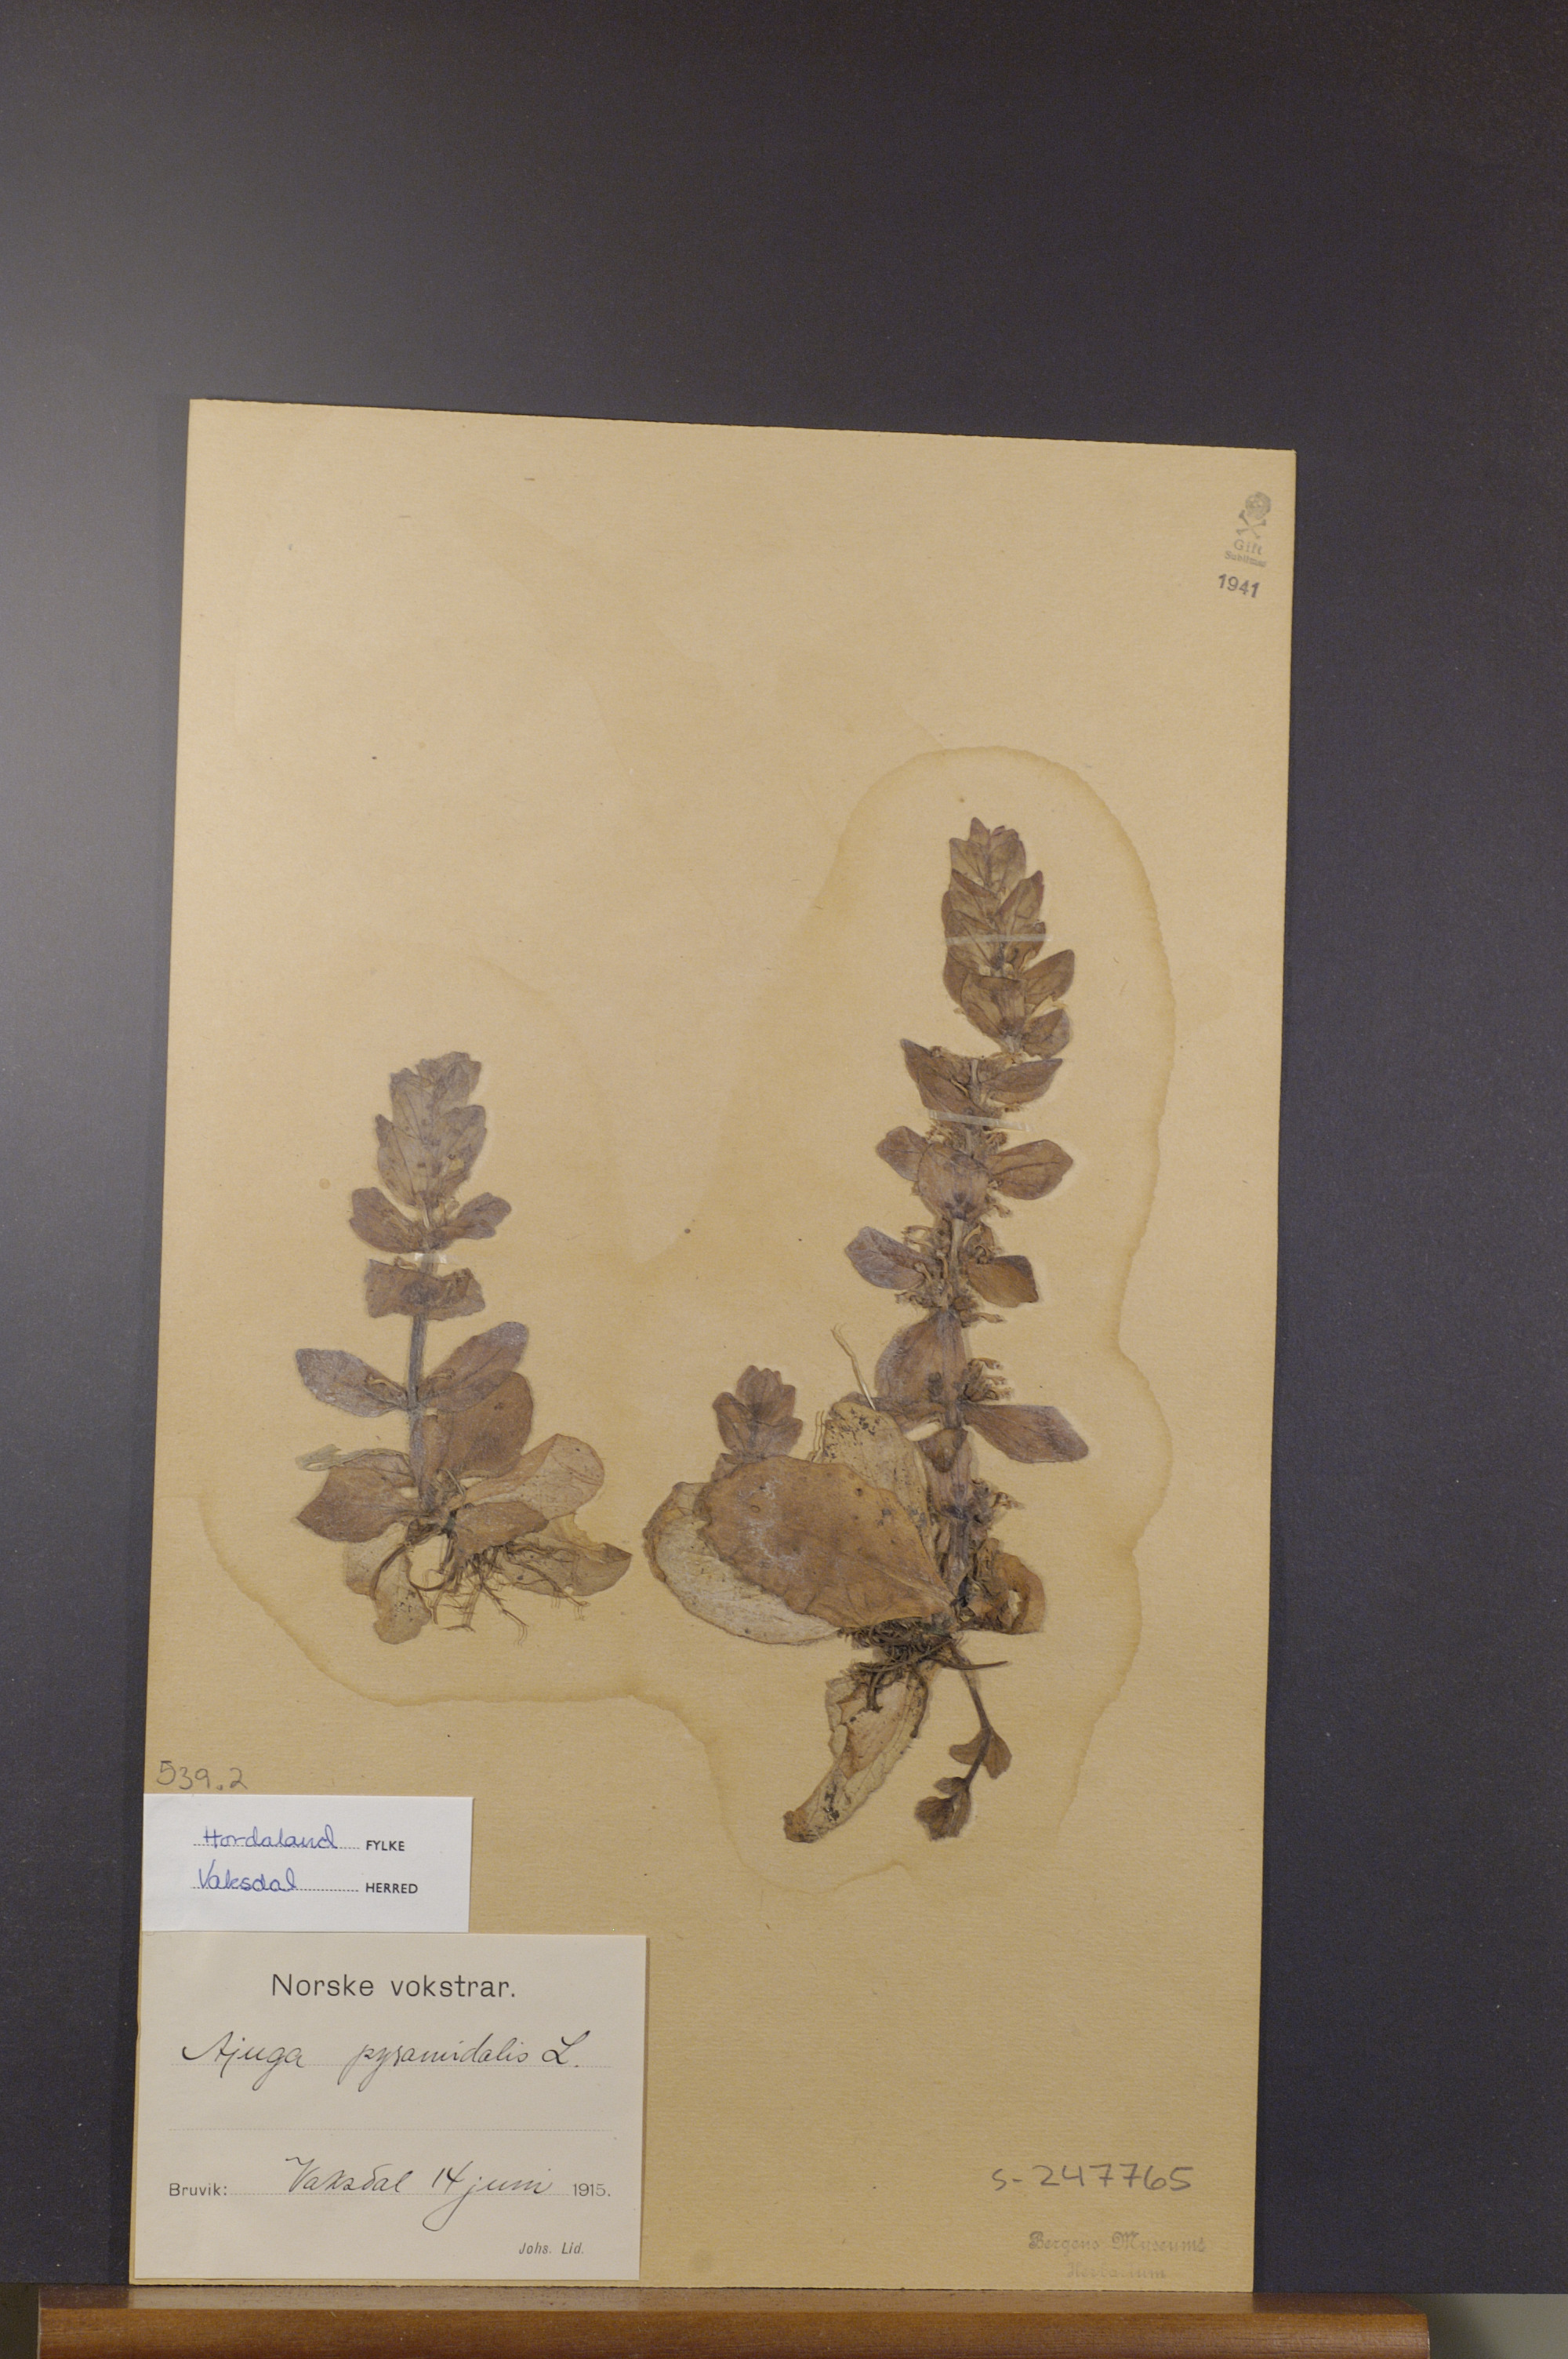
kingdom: Plantae
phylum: Tracheophyta
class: Magnoliopsida
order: Lamiales
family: Lamiaceae
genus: Ajuga
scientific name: Ajuga pyramidalis
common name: Pyramid bugle
